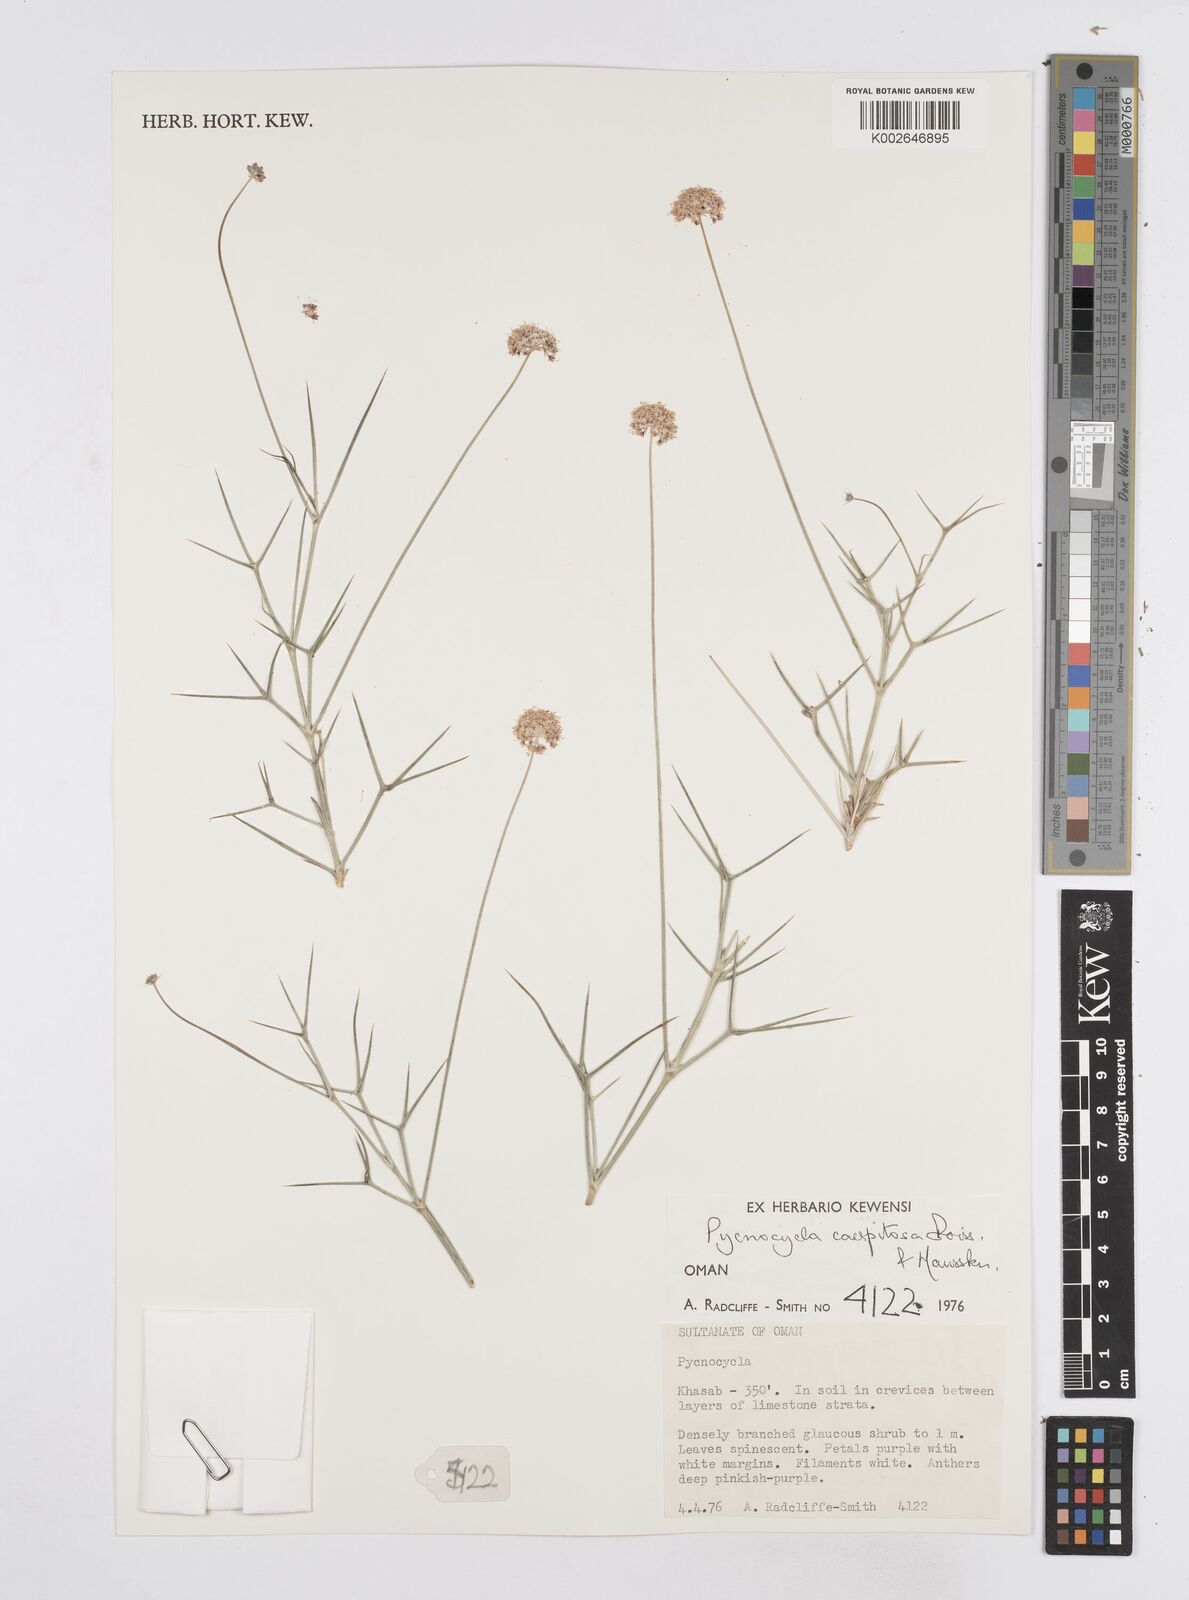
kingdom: Plantae
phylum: Tracheophyta
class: Magnoliopsida
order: Apiales
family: Apiaceae
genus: Pycnocycla
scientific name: Pycnocycla cespitosa
